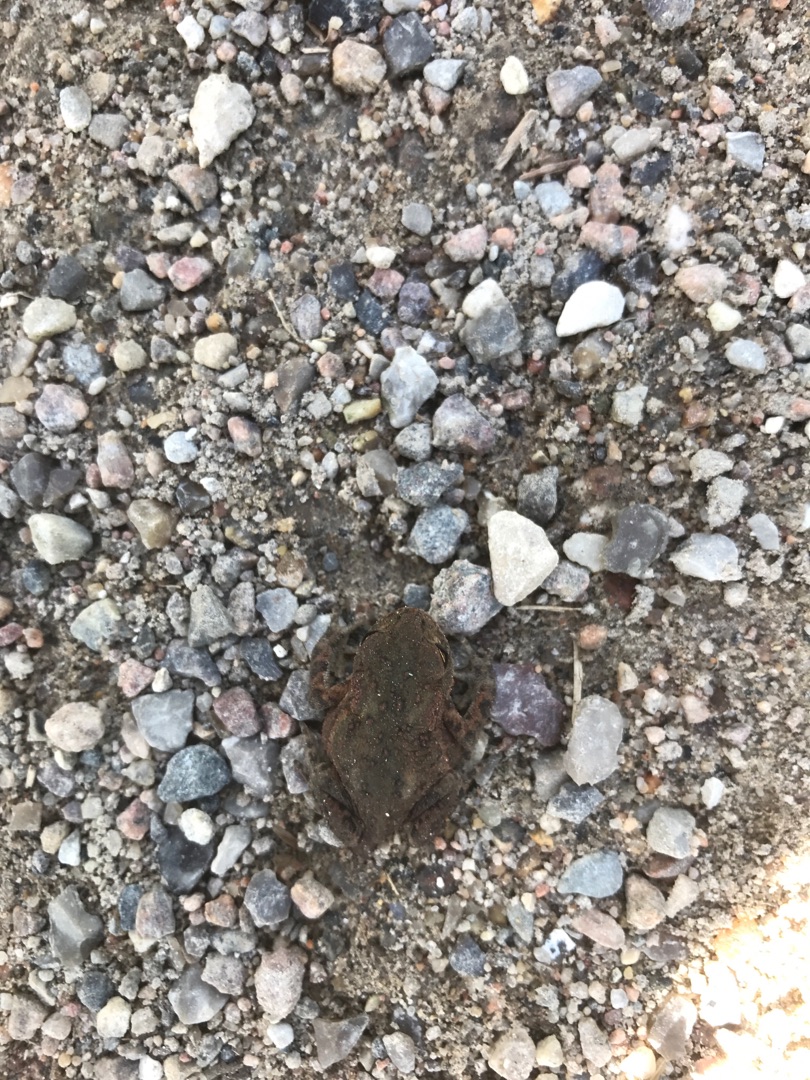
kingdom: Animalia
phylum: Chordata
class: Amphibia
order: Anura
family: Bufonidae
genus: Bufo
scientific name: Bufo bufo
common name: Skrubtudse
